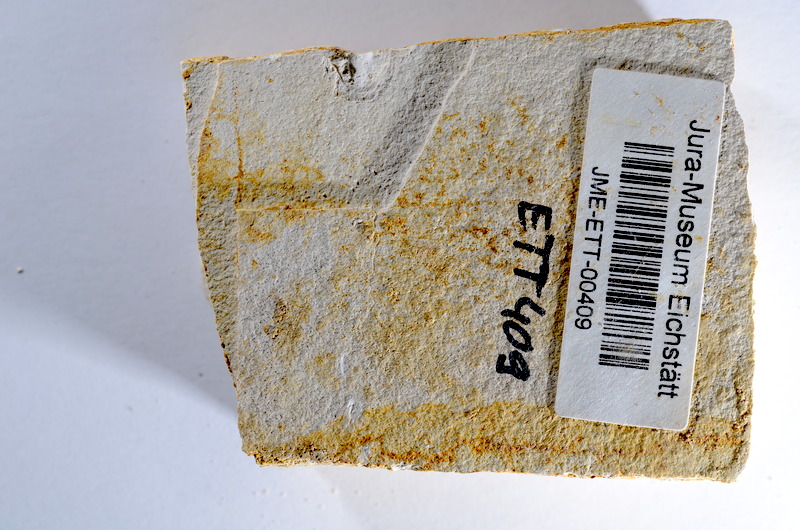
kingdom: Animalia
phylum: Chordata
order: Salmoniformes
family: Orthogonikleithridae
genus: Orthogonikleithrus
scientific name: Orthogonikleithrus hoelli
